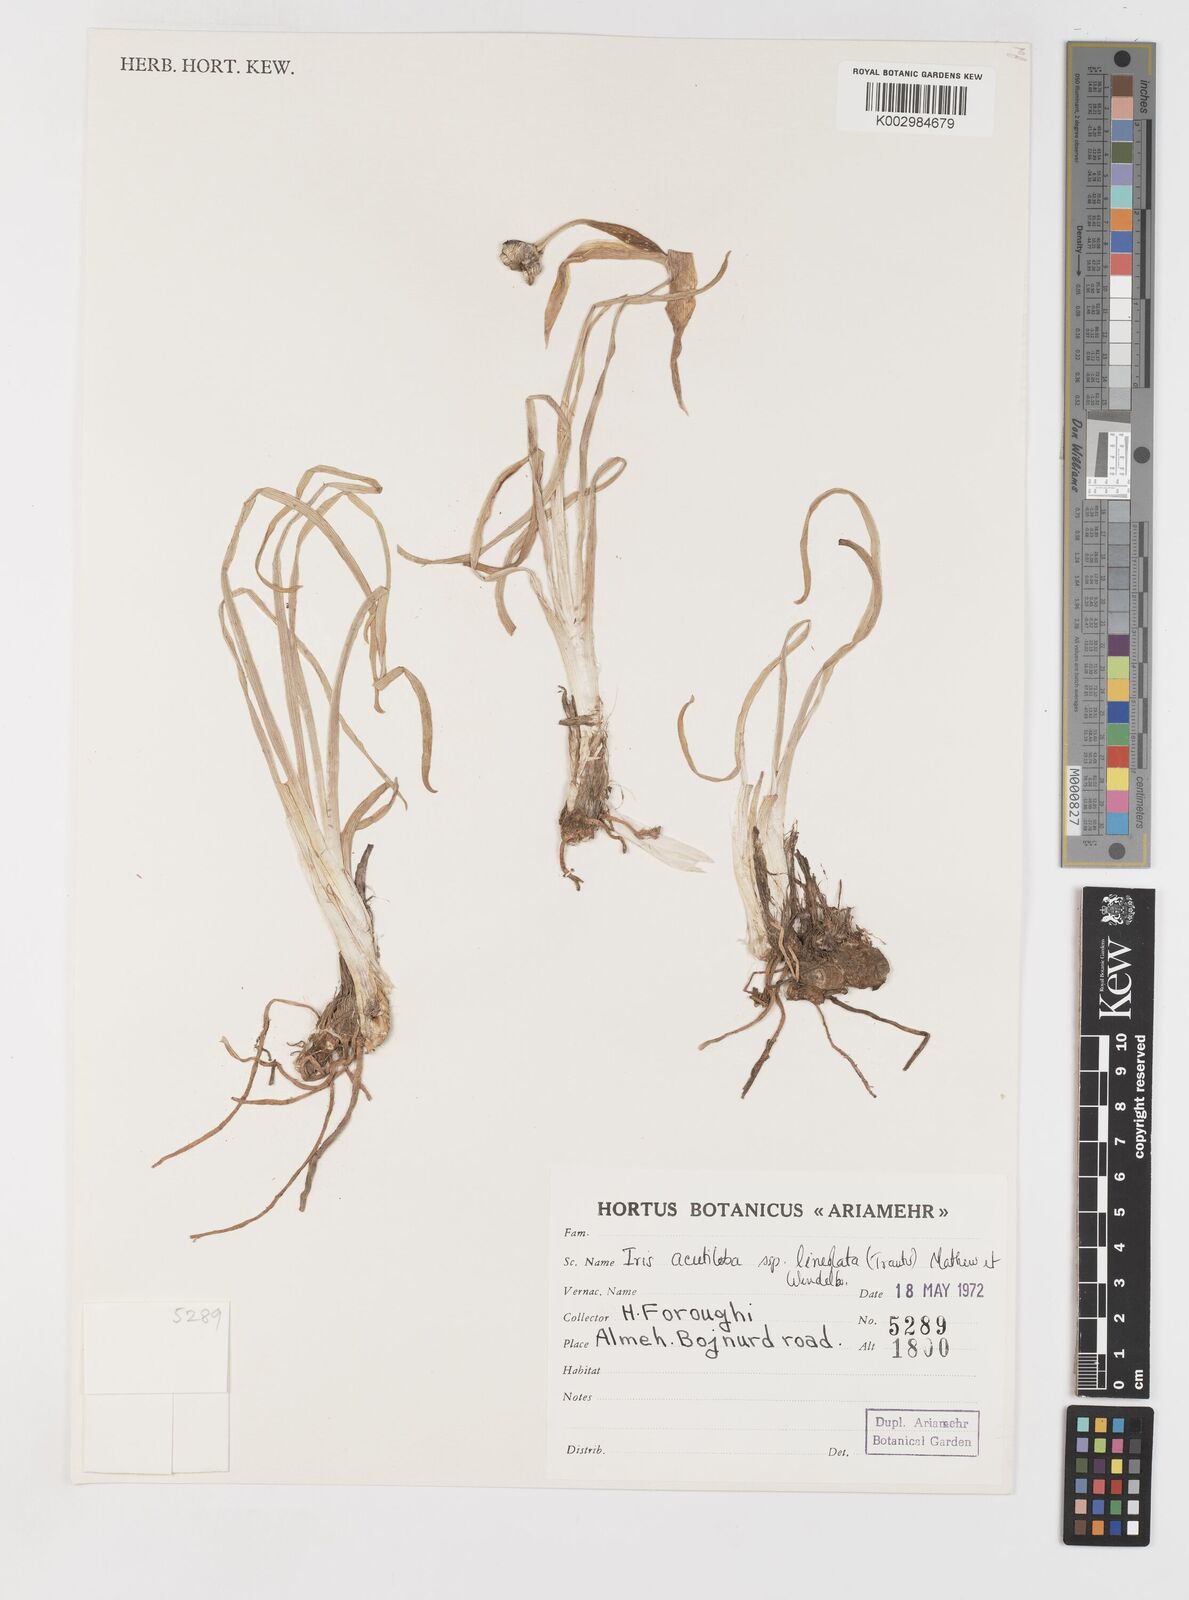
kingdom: Plantae
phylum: Tracheophyta
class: Liliopsida
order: Asparagales
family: Iridaceae
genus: Iris
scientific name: Iris acutiloba
